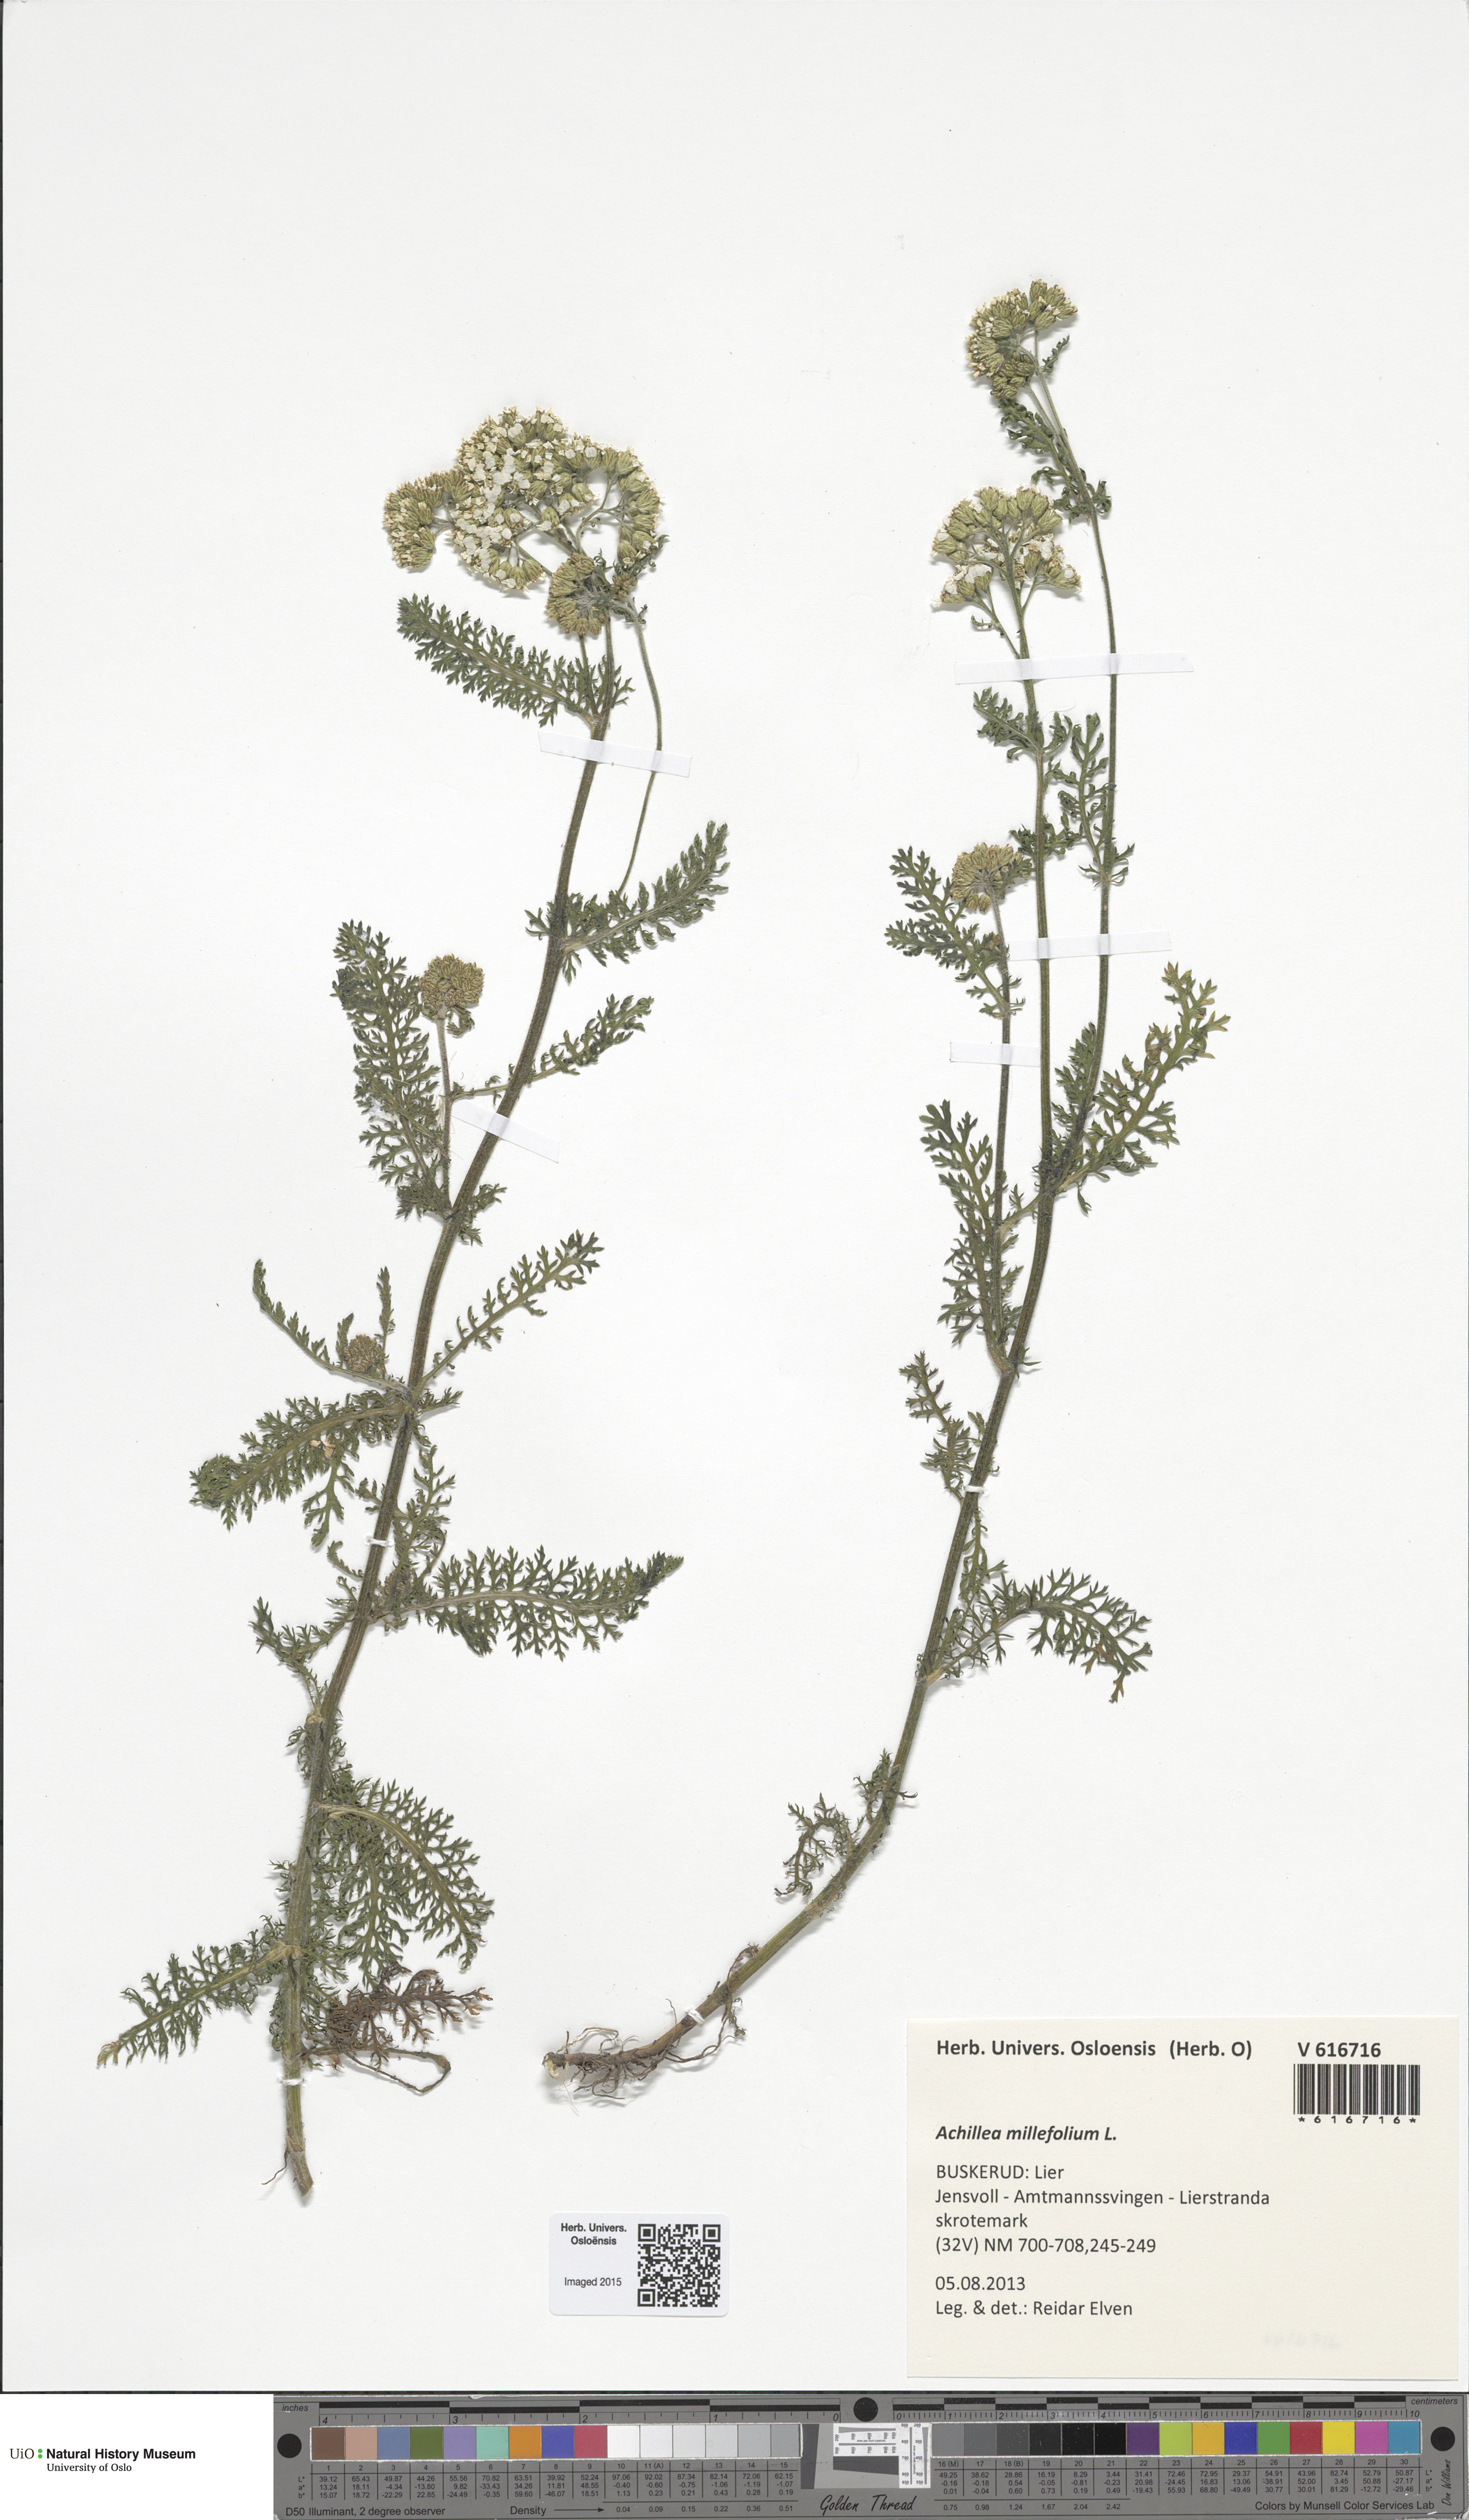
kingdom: Plantae
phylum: Tracheophyta
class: Magnoliopsida
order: Asterales
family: Asteraceae
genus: Achillea
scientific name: Achillea millefolium
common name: Yarrow
